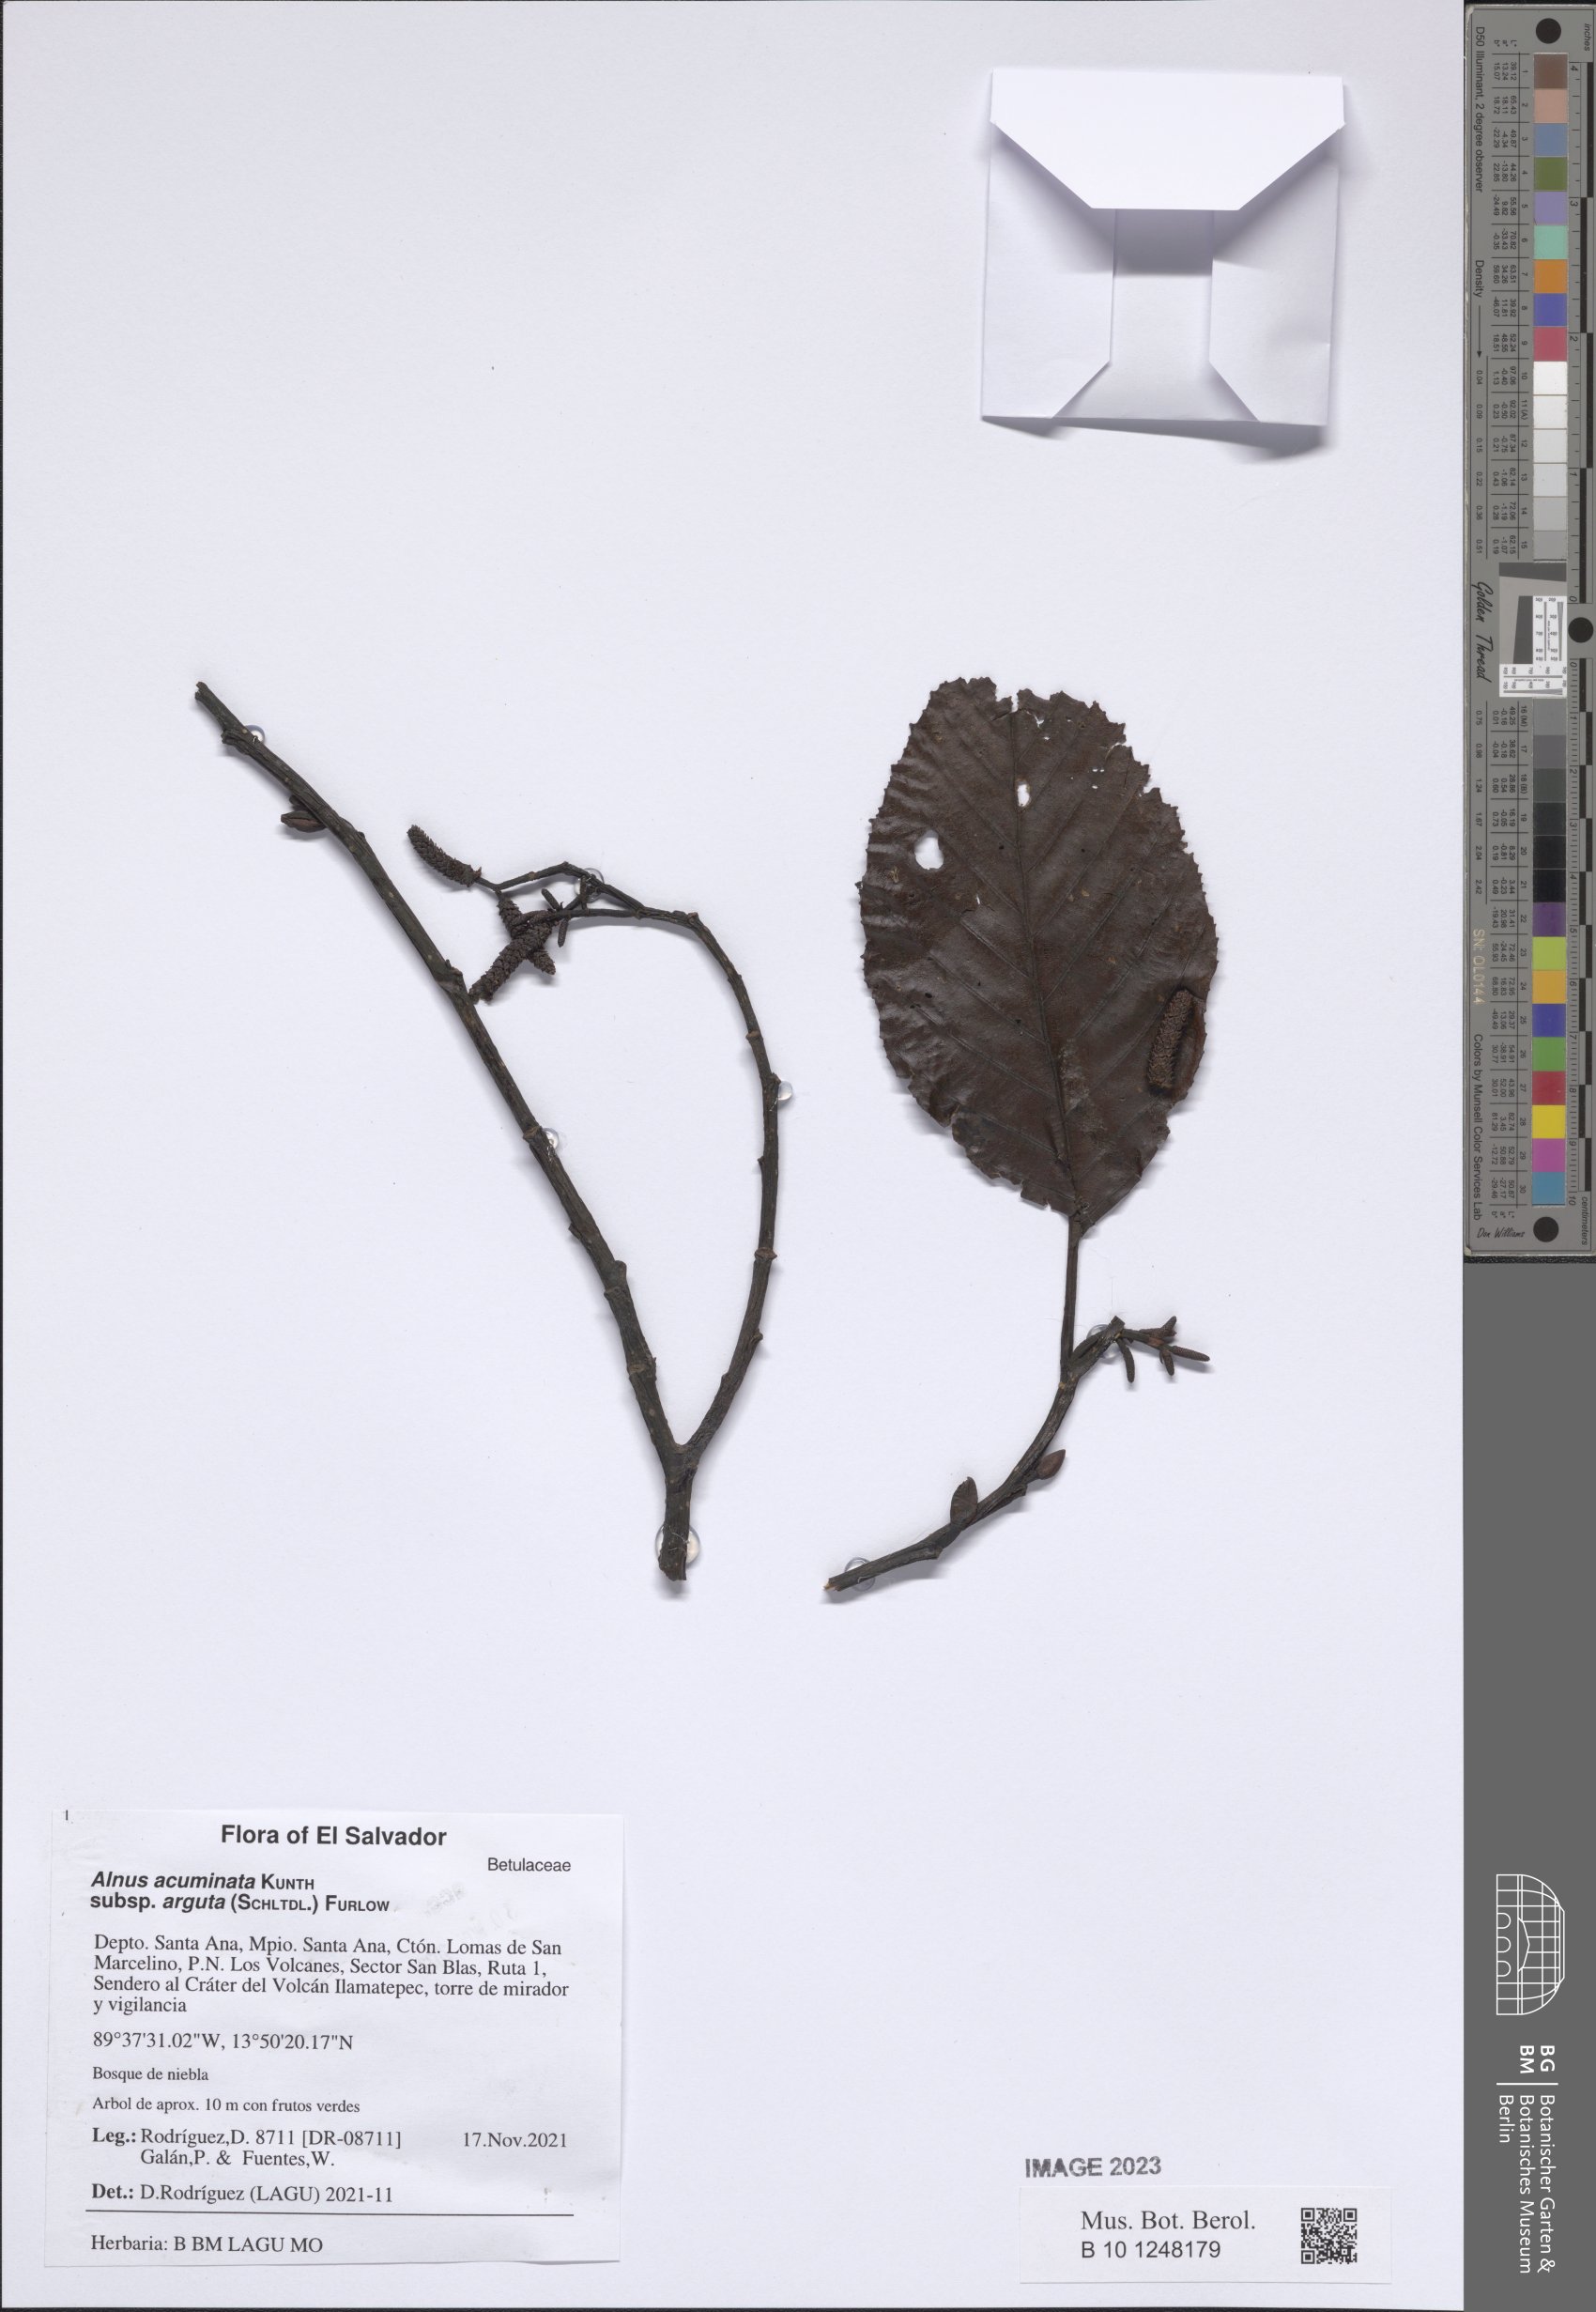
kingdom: Plantae
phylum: Tracheophyta
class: Magnoliopsida
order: Fagales
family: Betulaceae
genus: Alnus
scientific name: Alnus acuminata
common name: Alder
